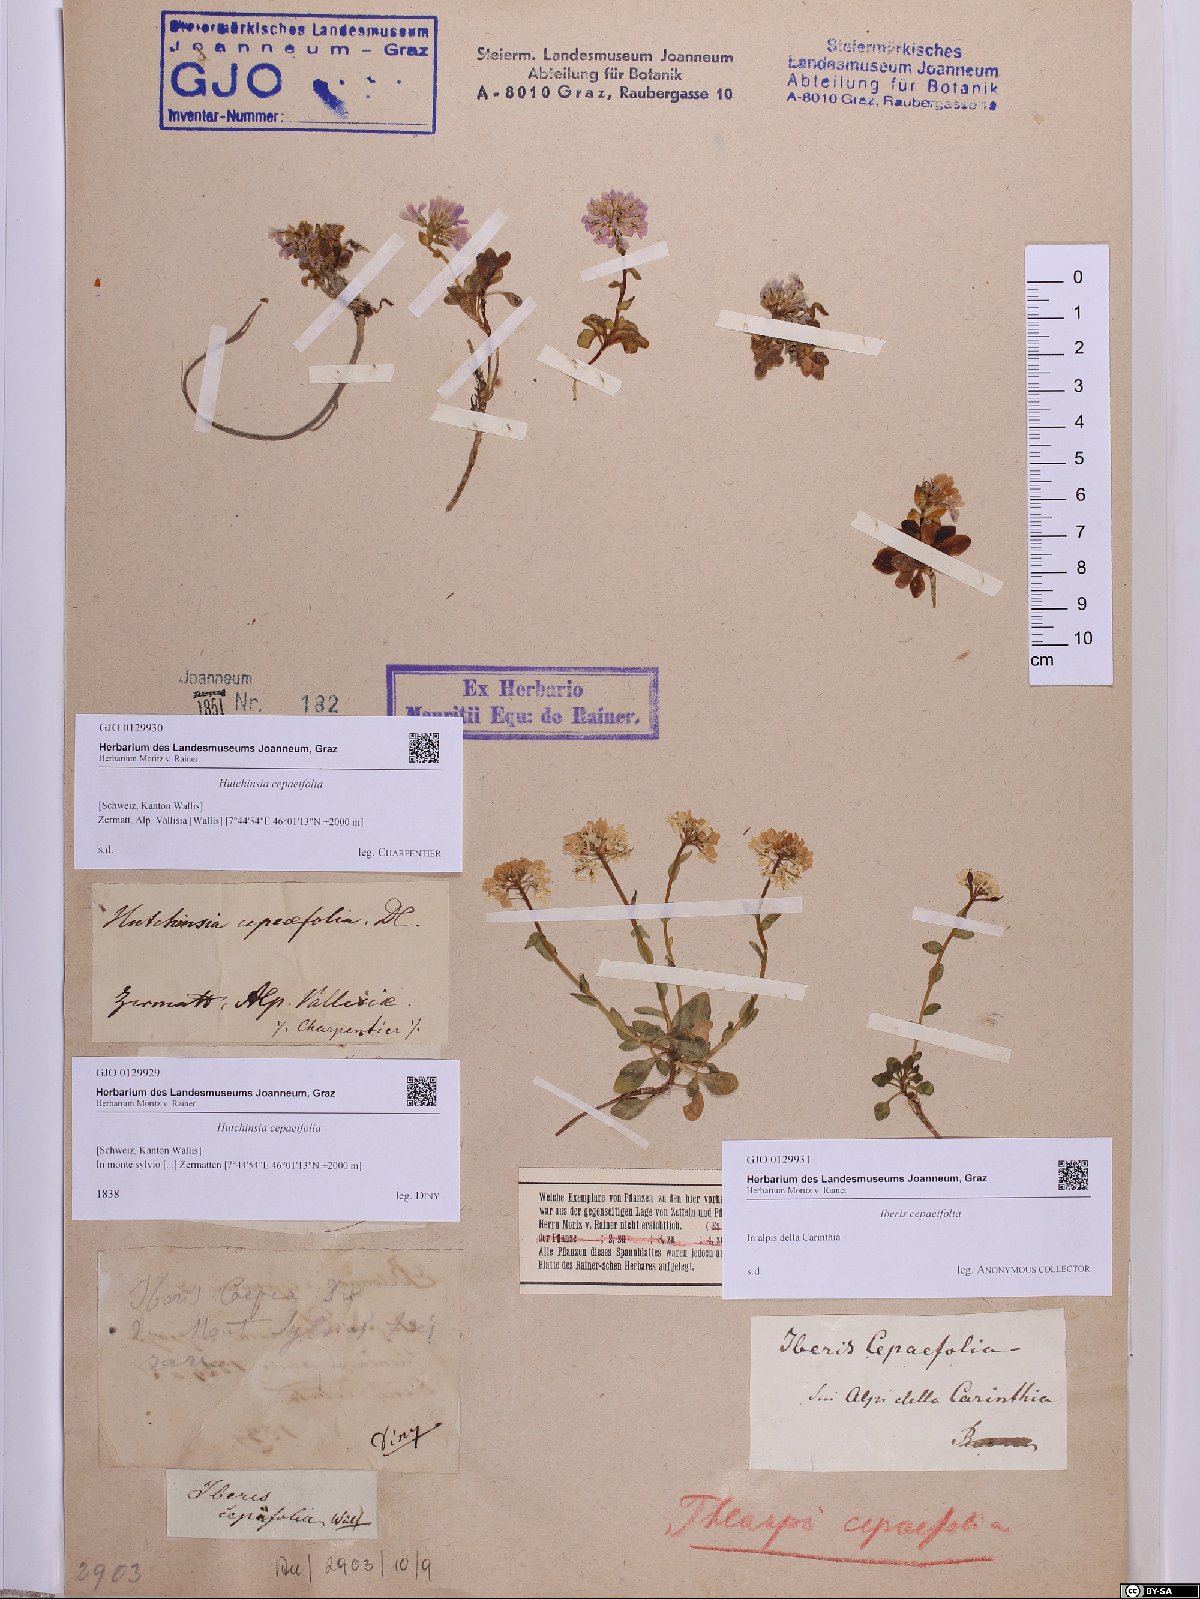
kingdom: Plantae
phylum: Tracheophyta
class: Magnoliopsida
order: Brassicales
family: Brassicaceae
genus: Noccaea
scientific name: Noccaea cepaeifolia
